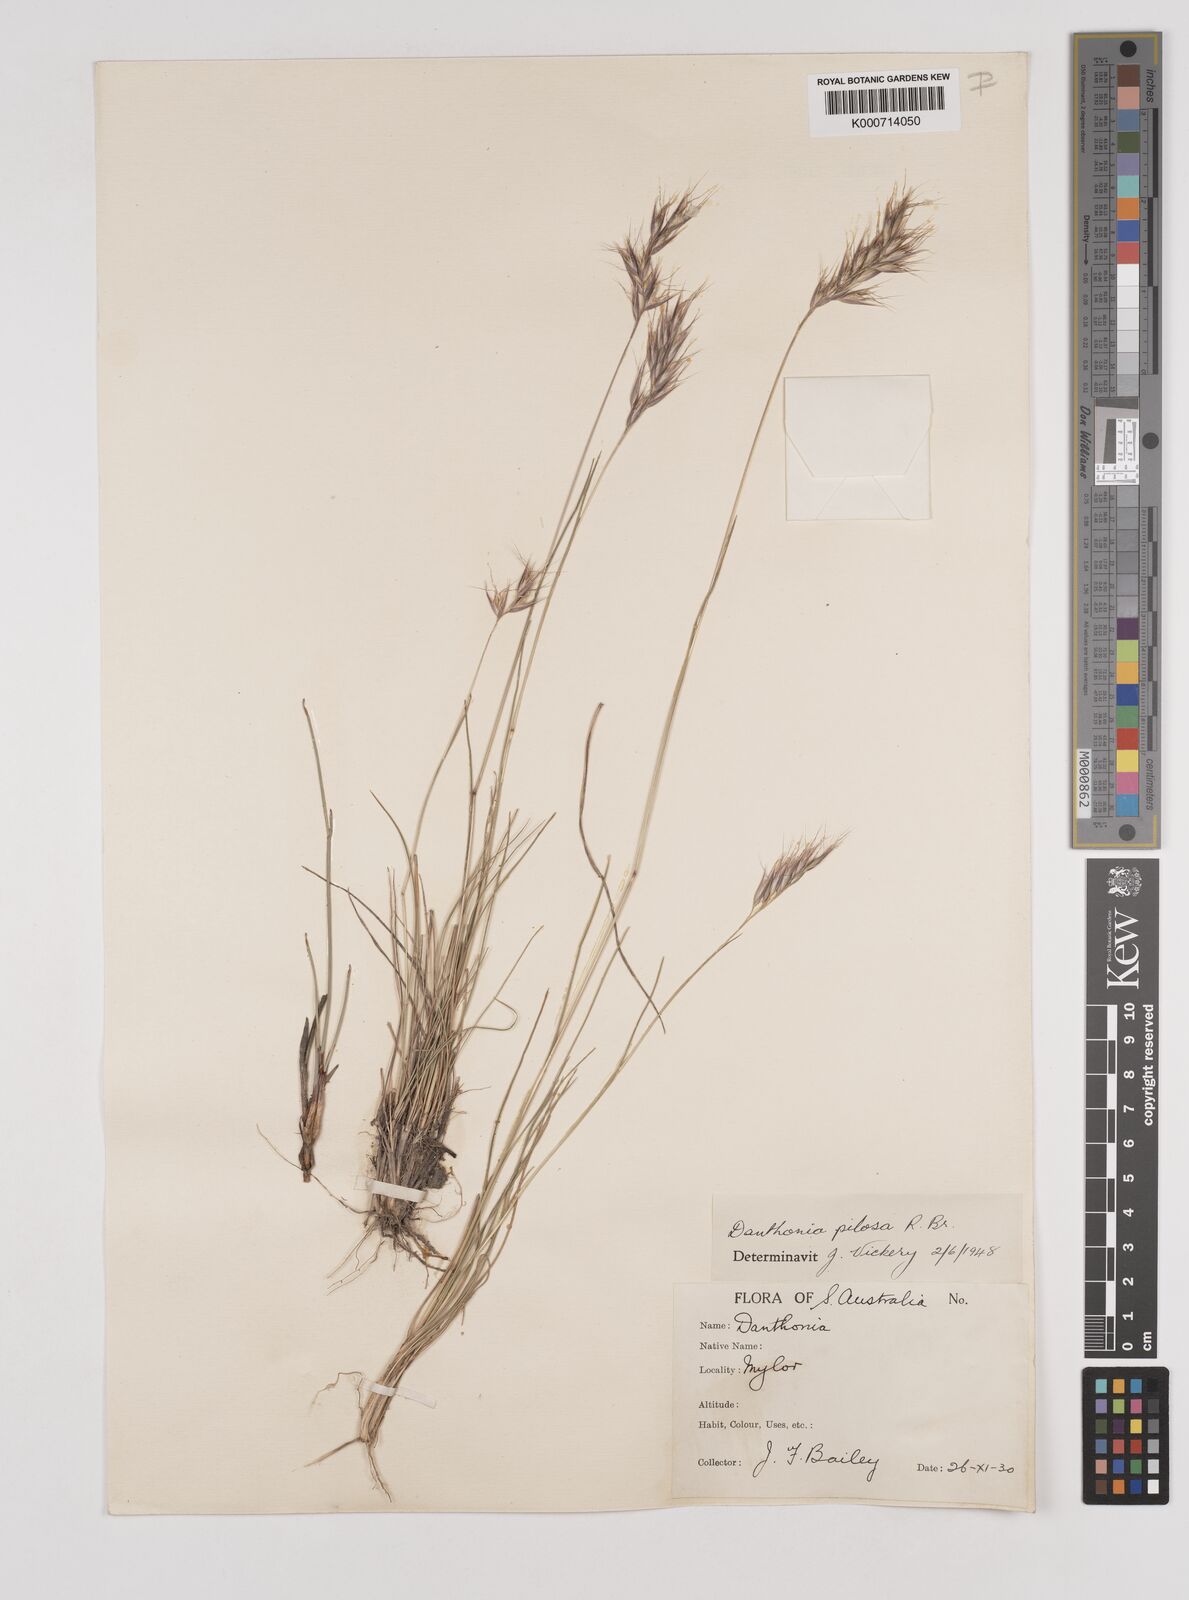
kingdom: Plantae
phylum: Tracheophyta
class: Liliopsida
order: Poales
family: Poaceae
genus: Rytidosperma
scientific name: Rytidosperma pilosum
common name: Hairy wallaby grass
